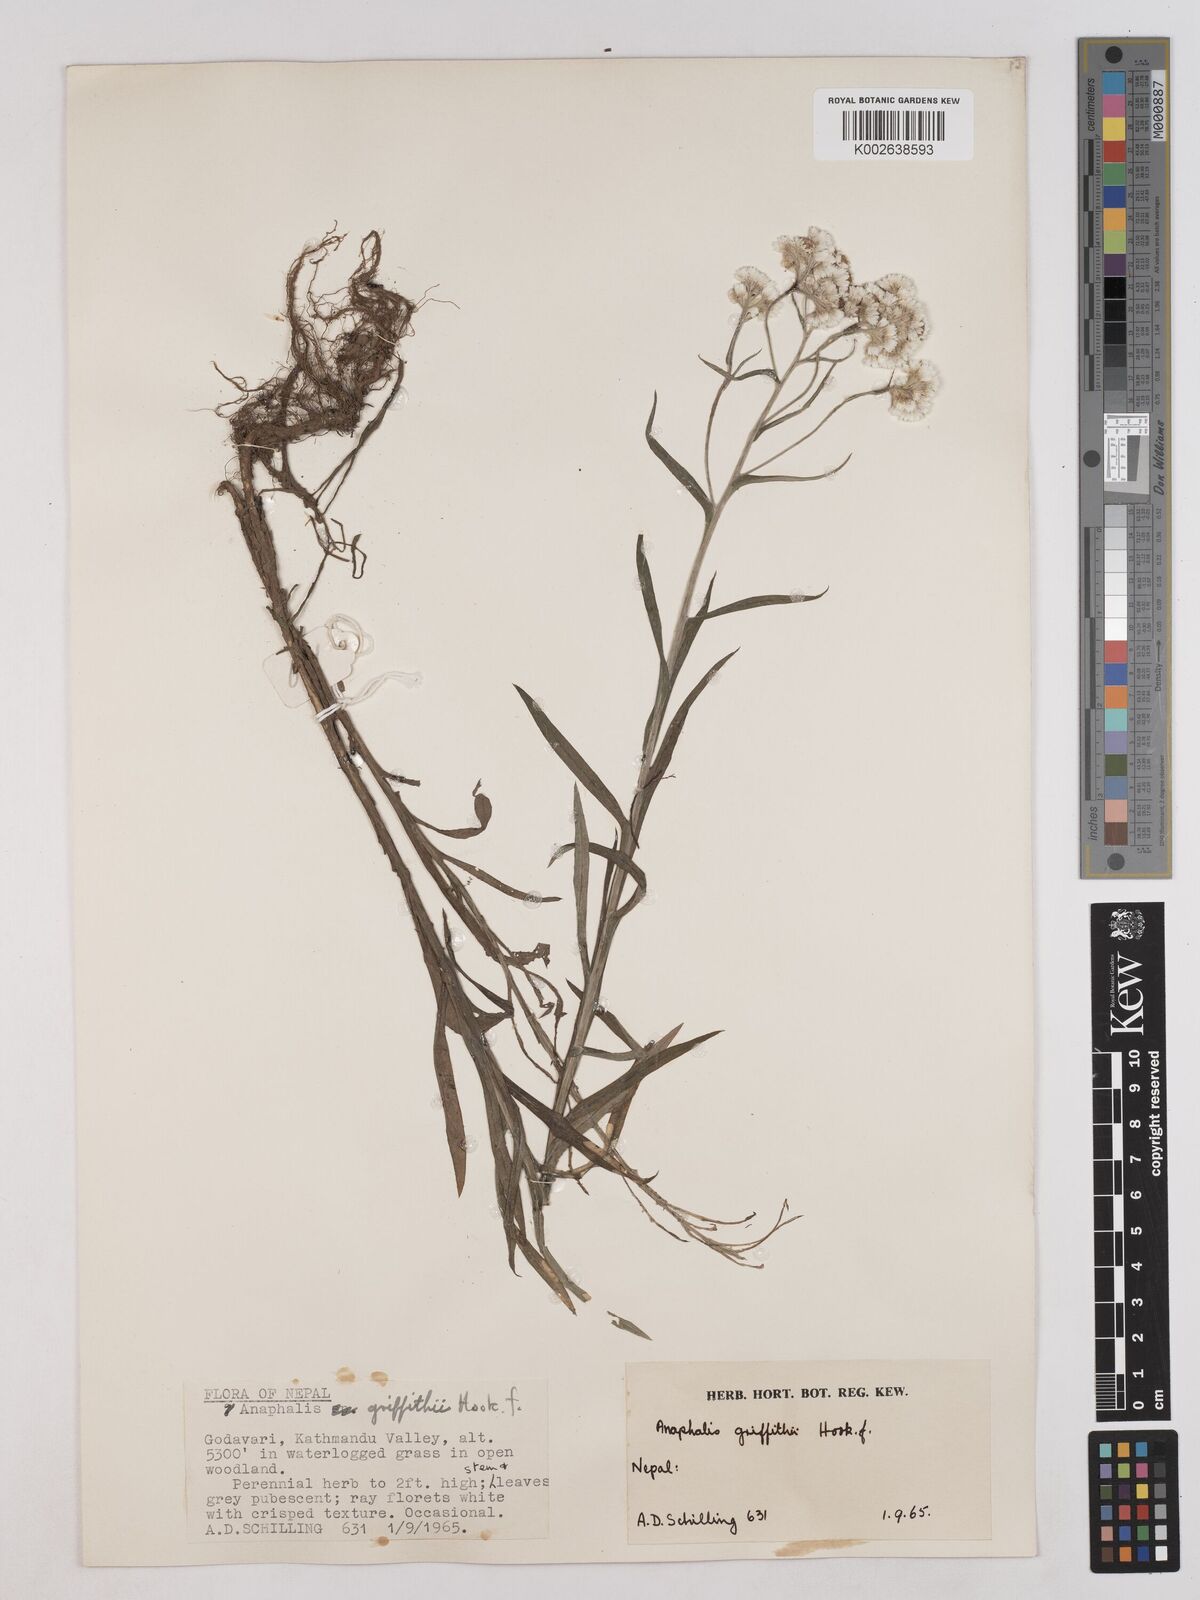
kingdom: Plantae
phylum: Tracheophyta
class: Magnoliopsida
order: Asterales
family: Asteraceae
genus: Anaphalis
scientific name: Anaphalis griffithii
